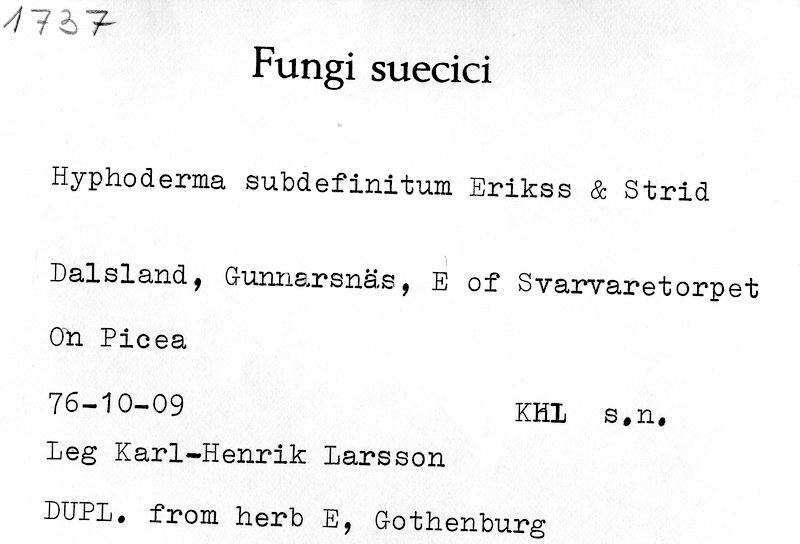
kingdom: Fungi
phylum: Basidiomycota
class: Agaricomycetes
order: Polyporales
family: Hyphodermataceae
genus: Hyphoderma
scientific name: Hyphoderma occidentale
